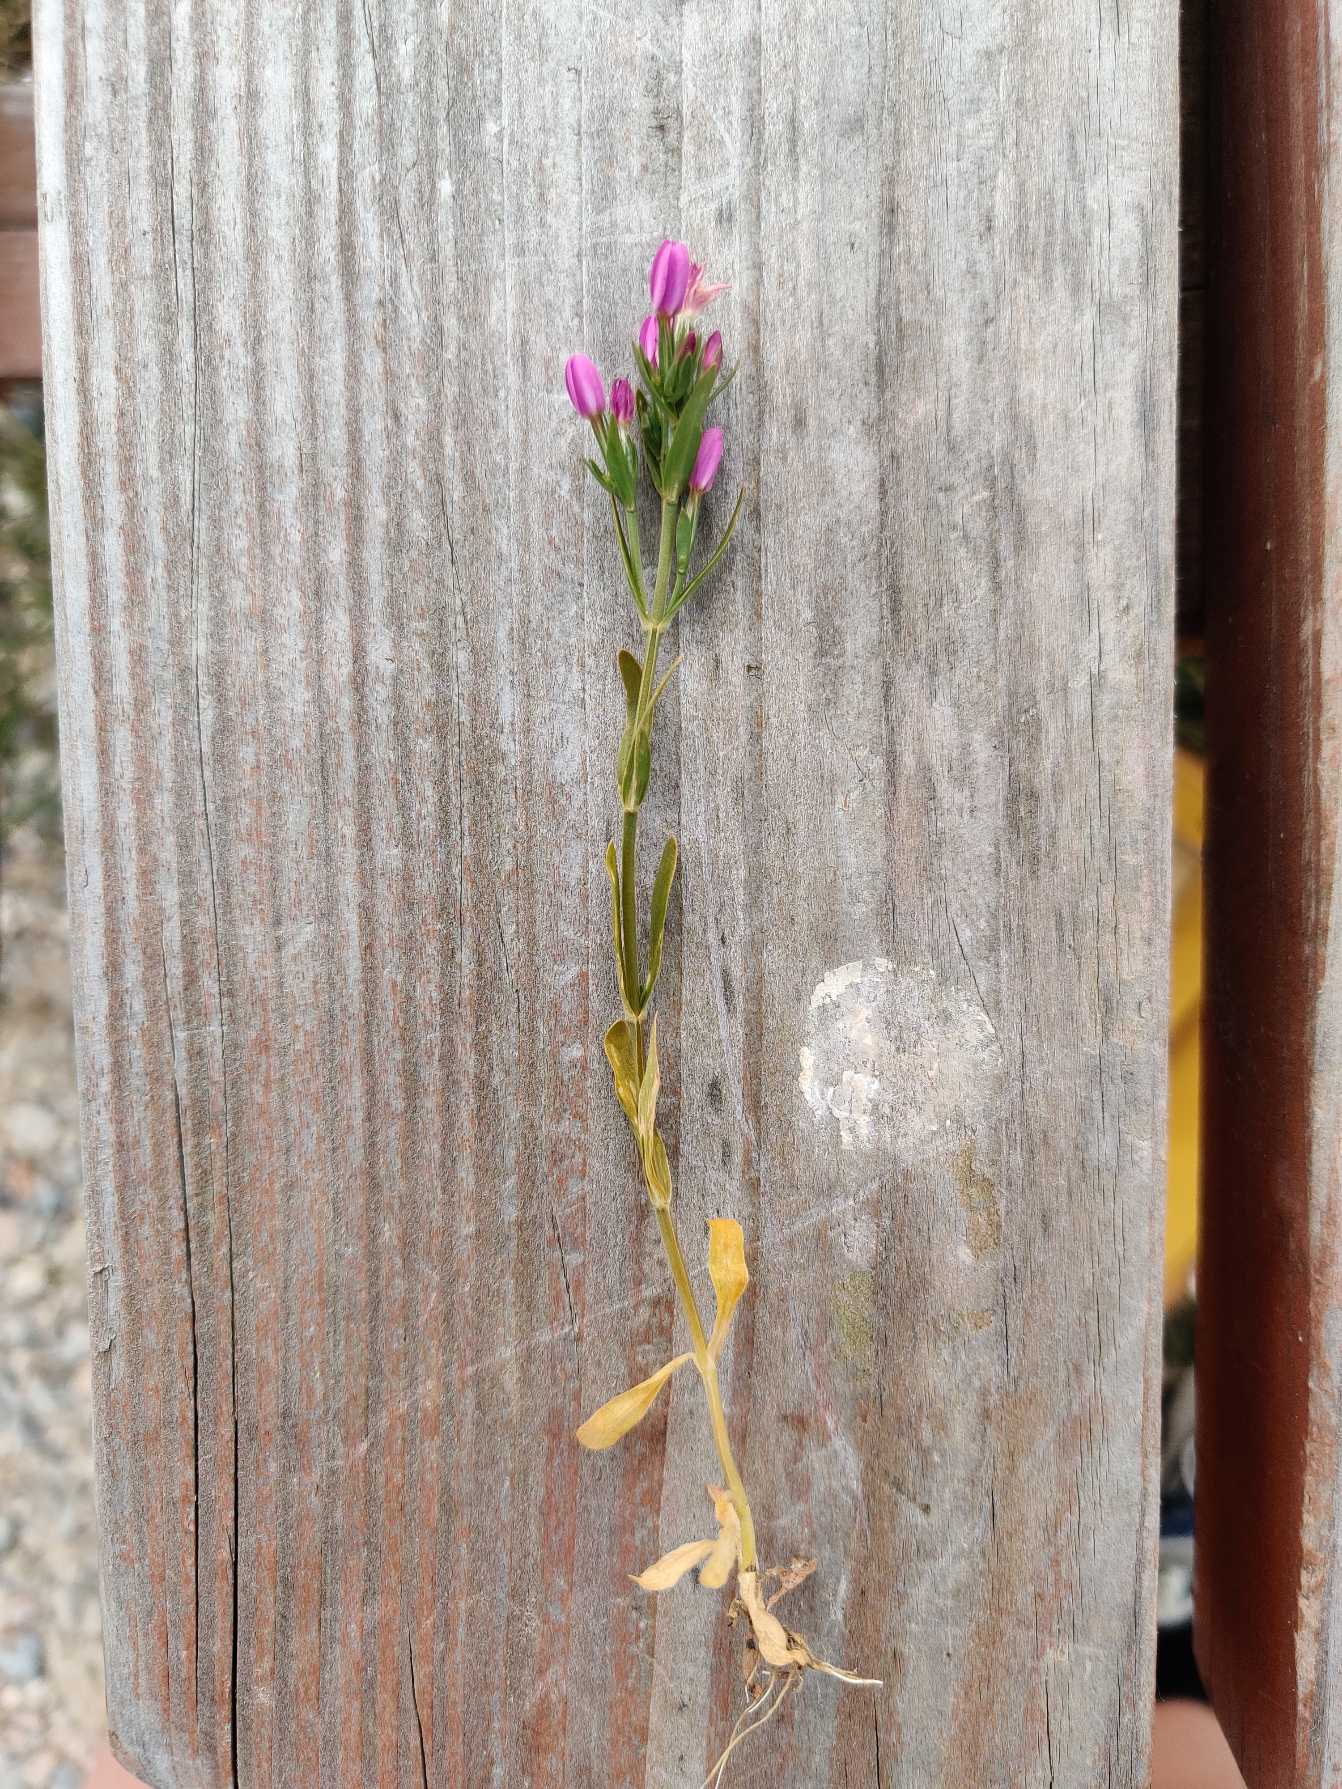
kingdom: Plantae
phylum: Tracheophyta
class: Magnoliopsida
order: Gentianales
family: Gentianaceae
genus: Centaurium
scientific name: Centaurium littorale
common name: Strand-tusindgylden
